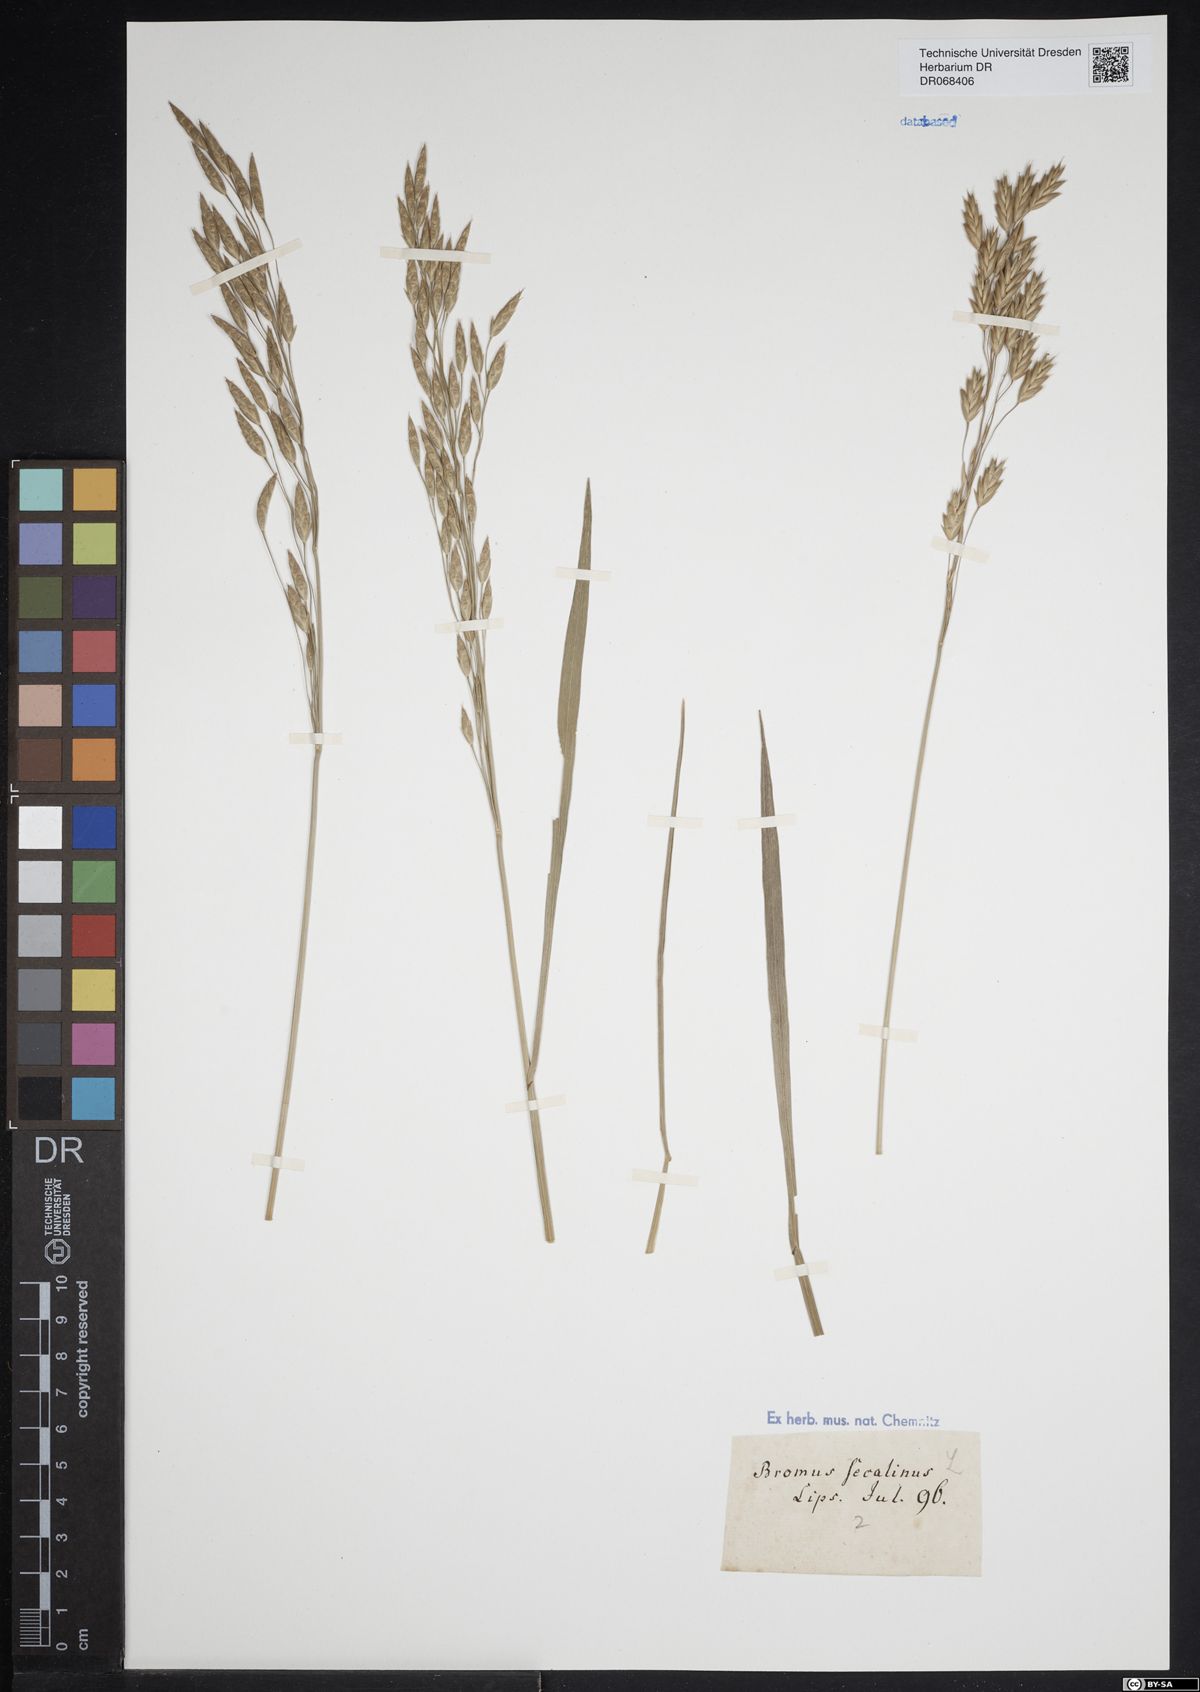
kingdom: Plantae
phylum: Tracheophyta
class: Liliopsida
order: Poales
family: Poaceae
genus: Bromus
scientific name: Bromus secalinus
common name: Rye brome
